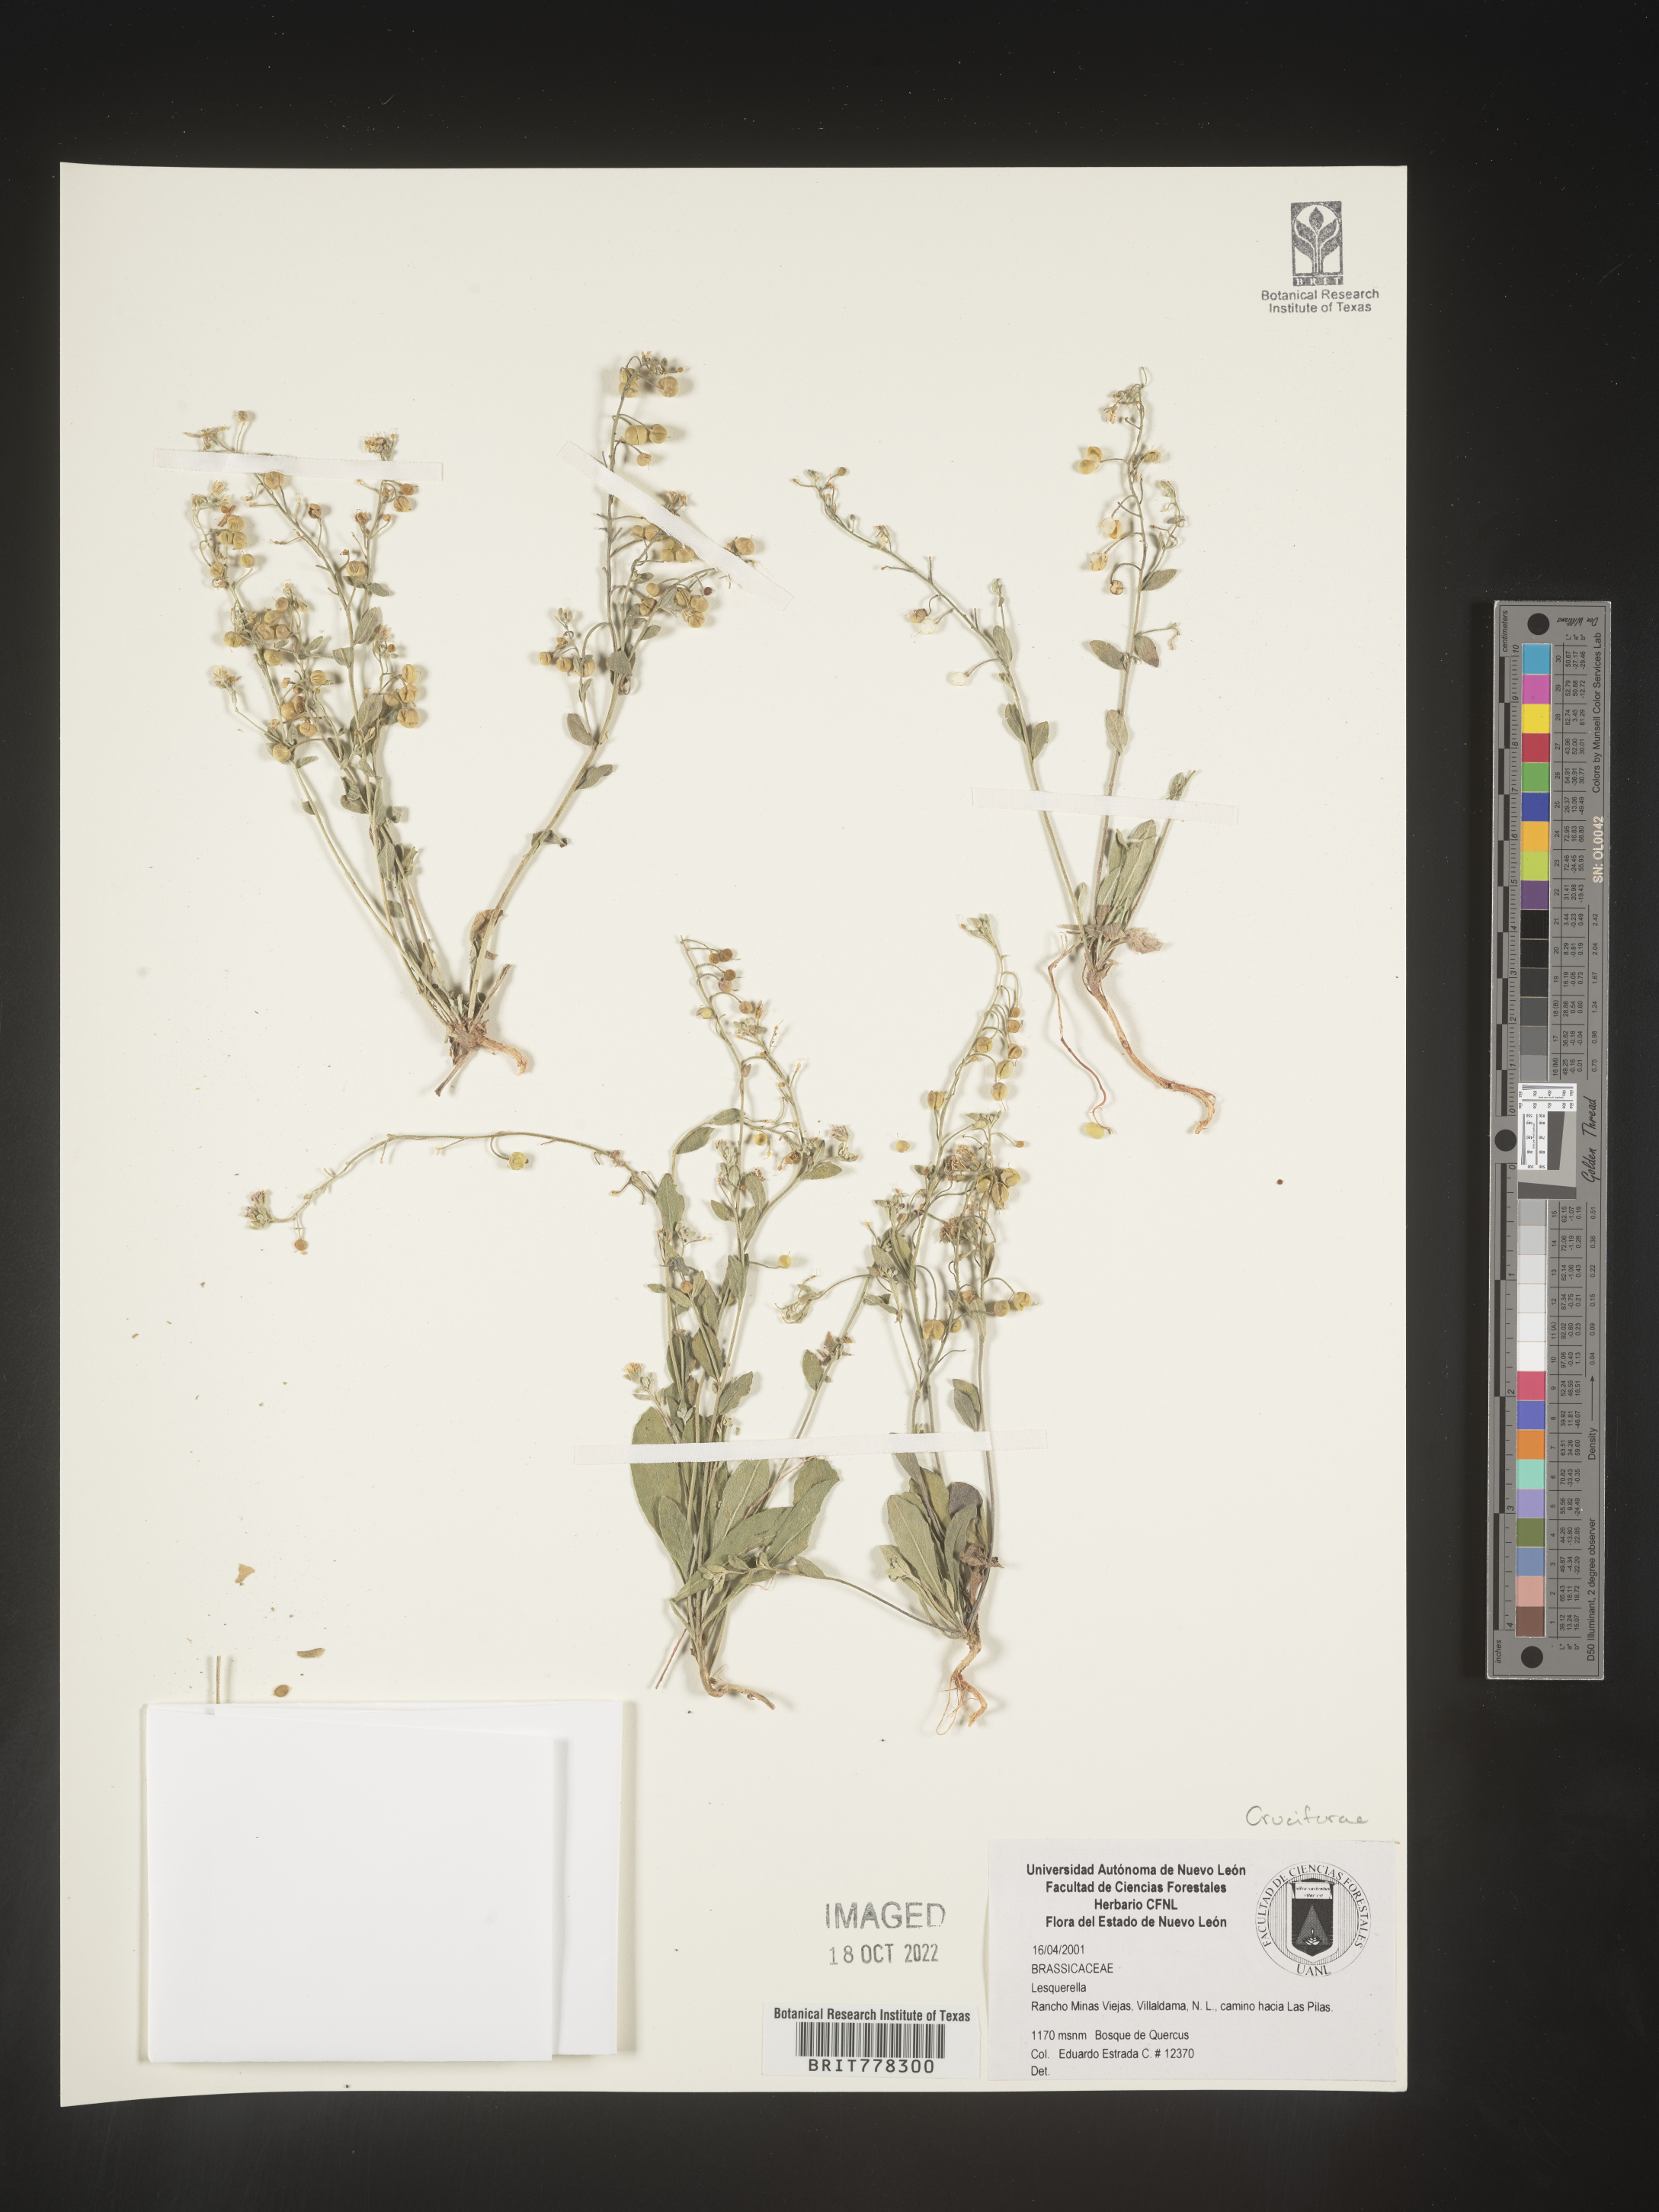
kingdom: Chromista
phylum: Cercozoa
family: Psammonobiotidae
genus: Lesquerella
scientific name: Lesquerella
